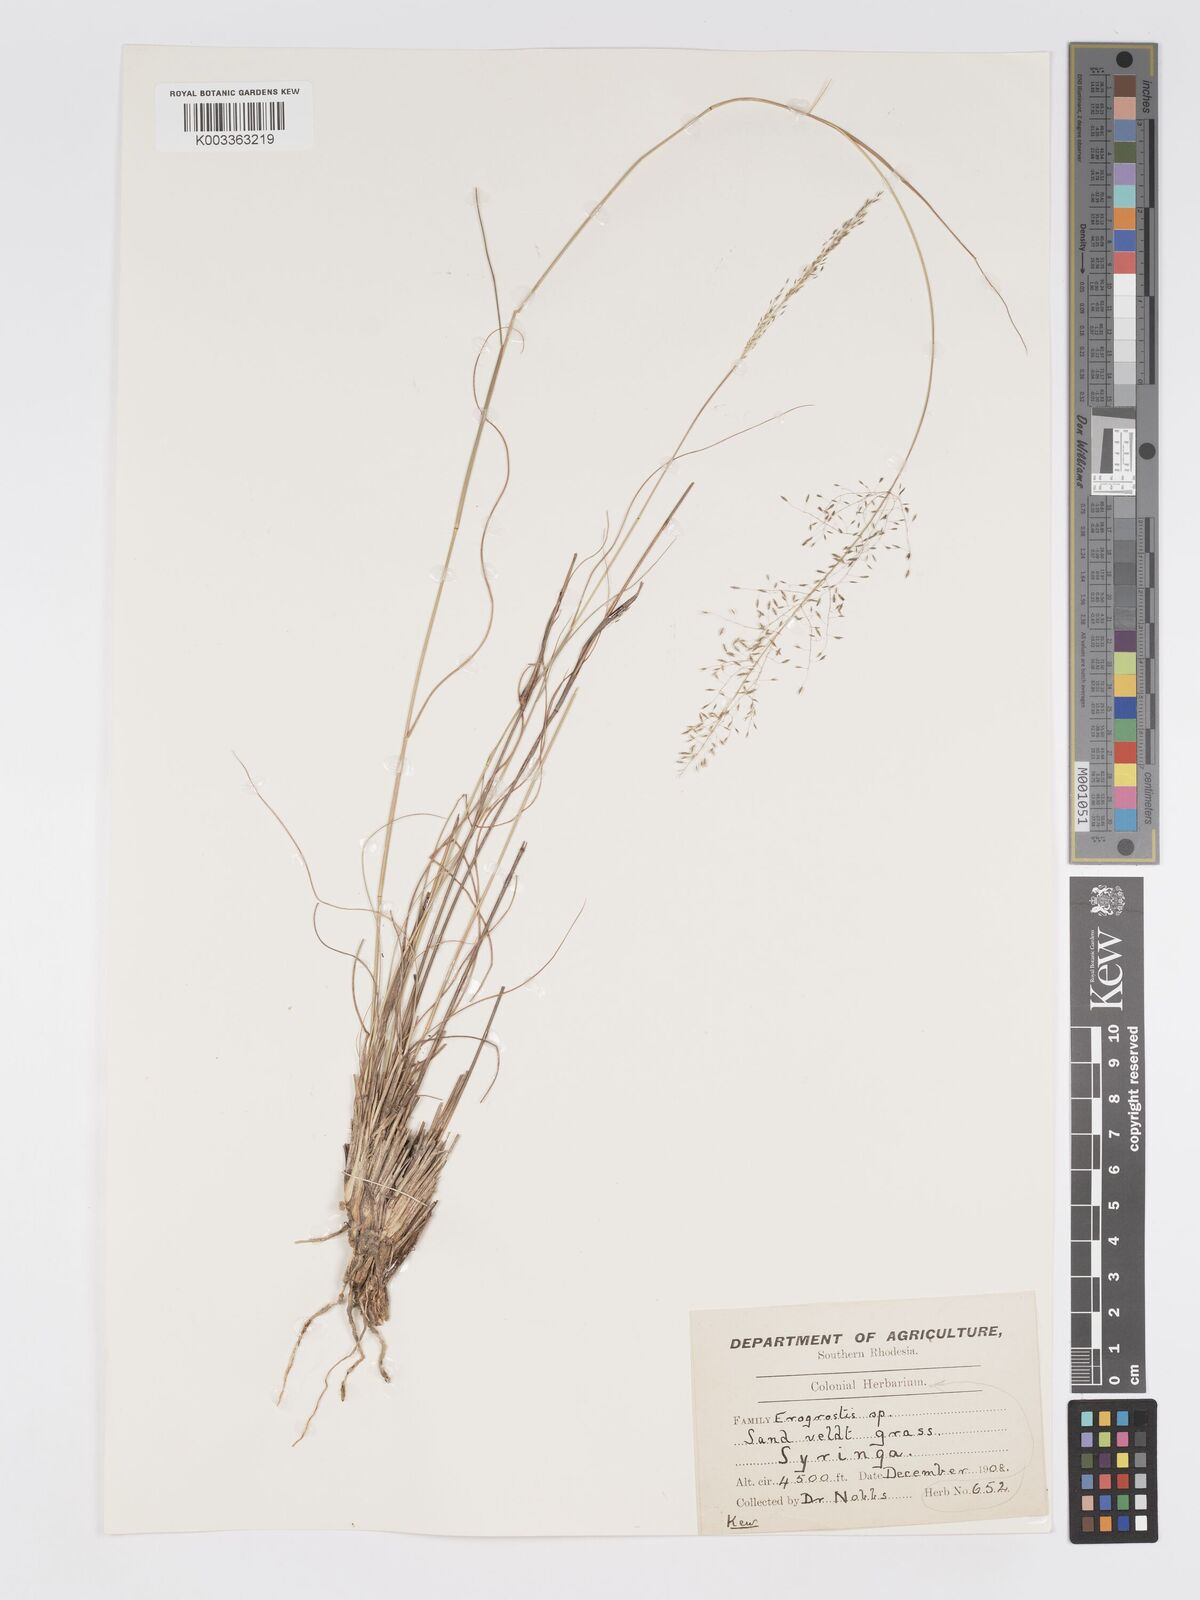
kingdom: Plantae
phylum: Tracheophyta
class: Liliopsida
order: Poales
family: Poaceae
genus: Eragrostis
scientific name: Eragrostis stapfii
